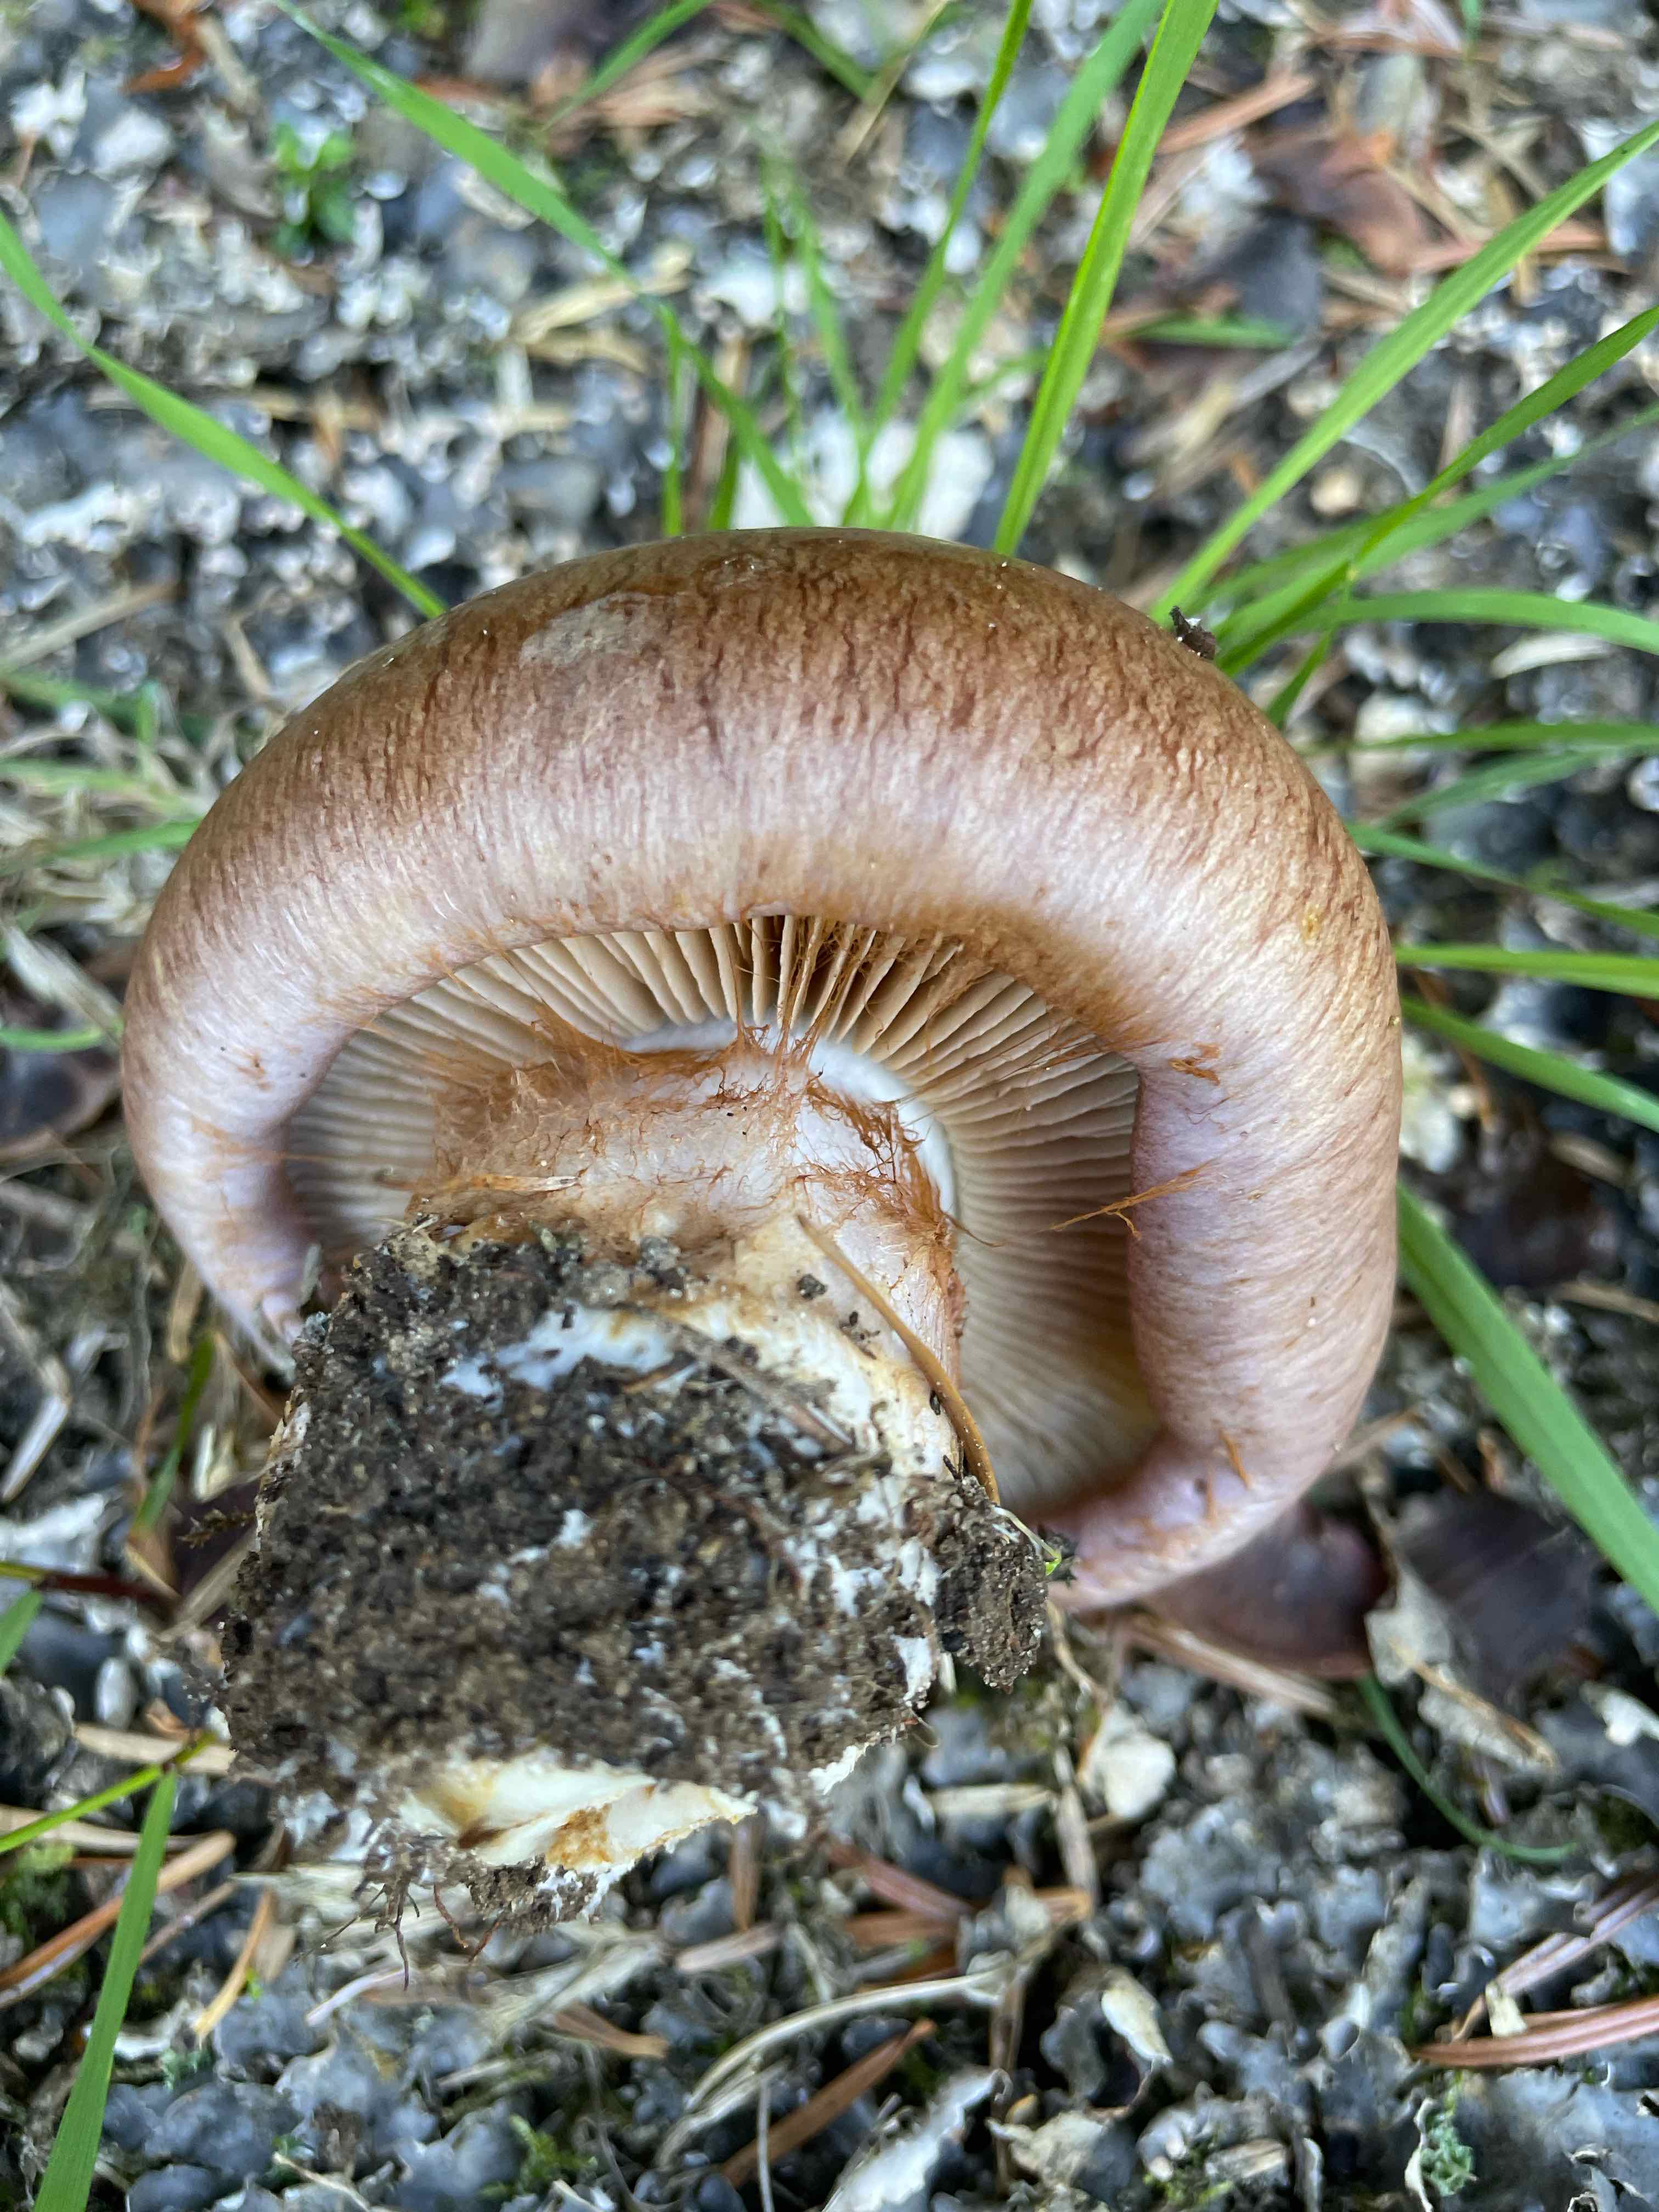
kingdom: Fungi
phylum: Basidiomycota
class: Agaricomycetes
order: Agaricales
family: Cortinariaceae
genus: Phlegmacium
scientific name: Phlegmacium balteatocumatile
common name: violettrådet slørhat
